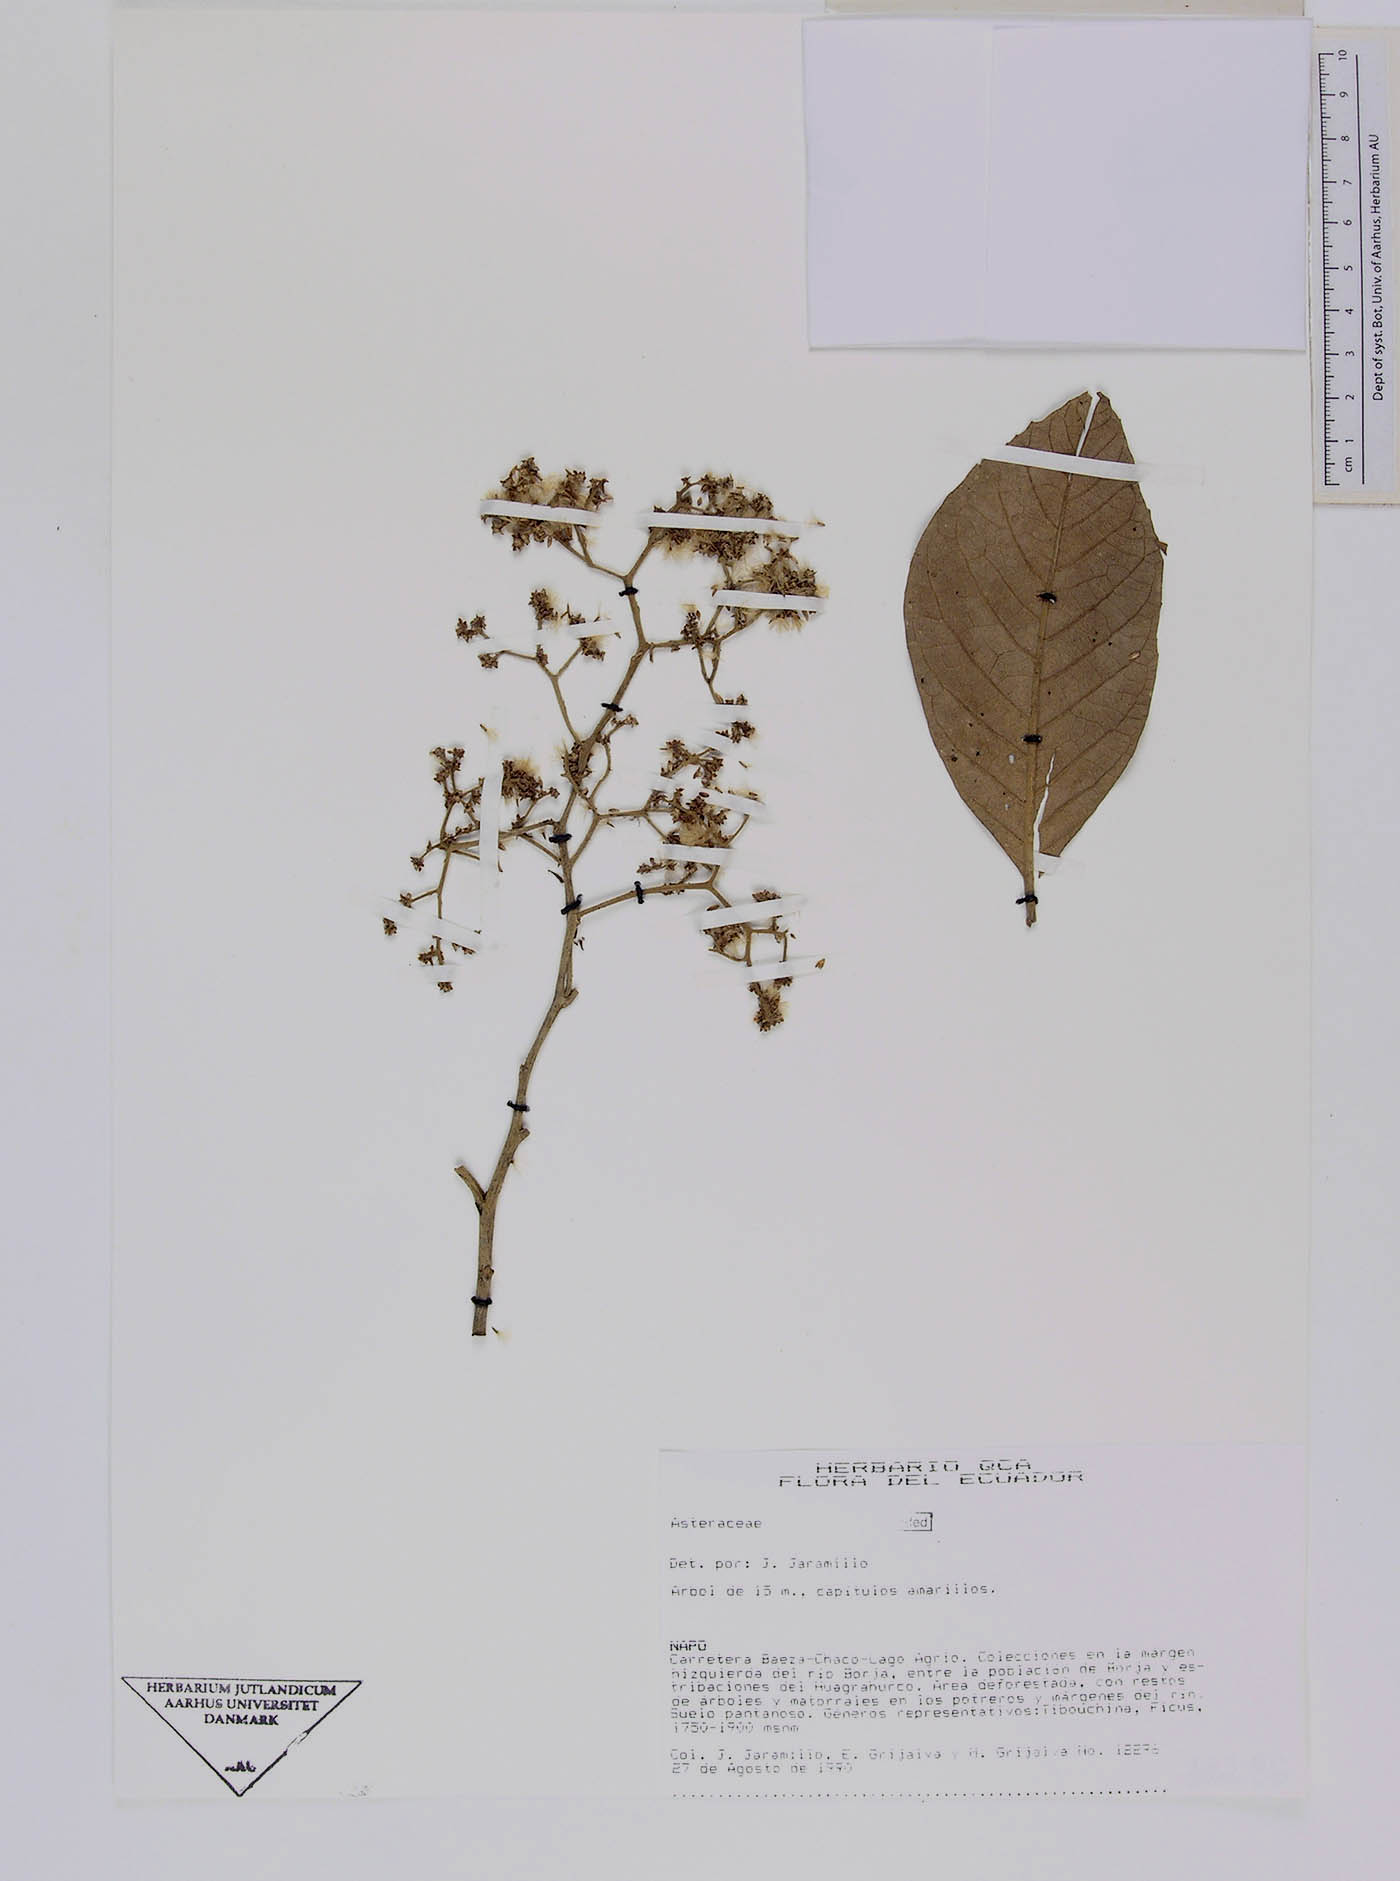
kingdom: Plantae
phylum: Tracheophyta
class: Magnoliopsida
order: Asterales
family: Asteraceae
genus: Critoniopsis
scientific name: Critoniopsis floribunda
